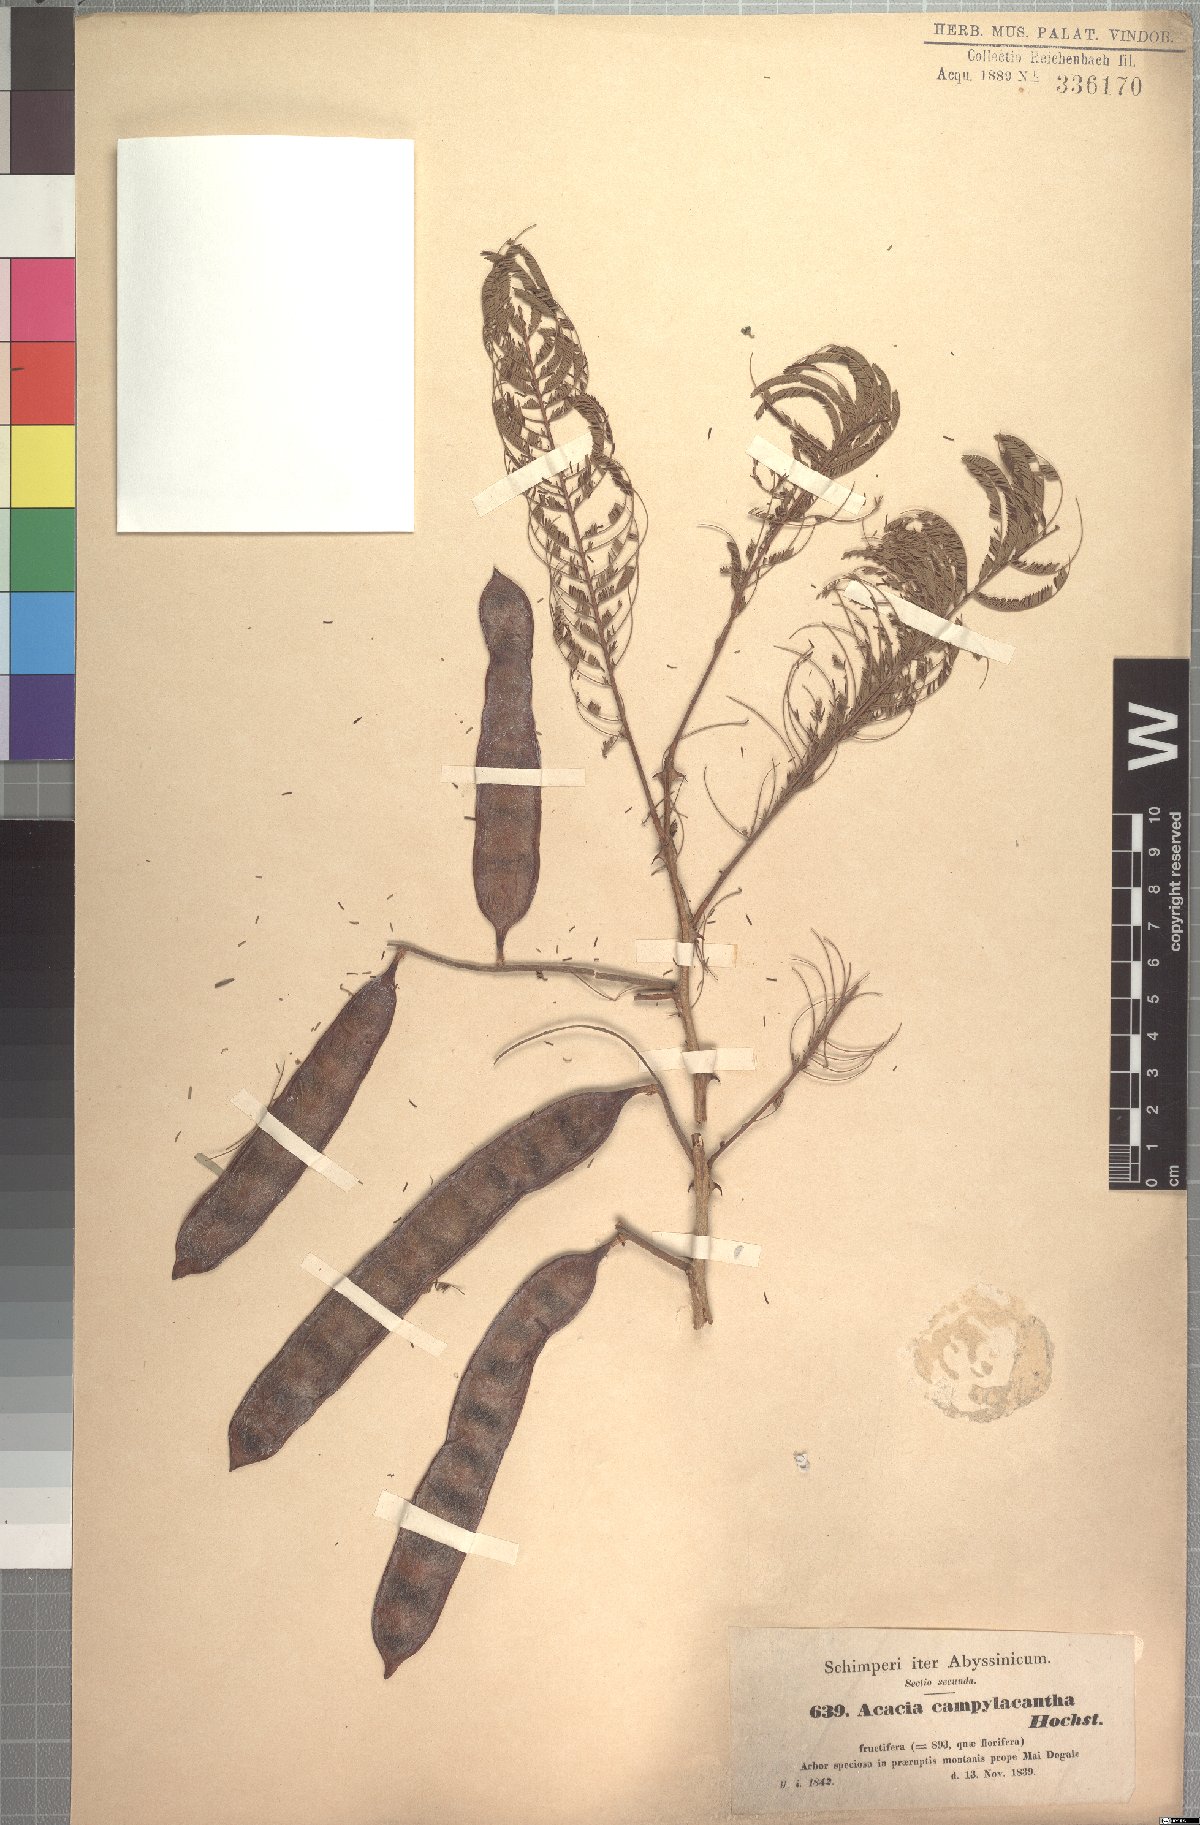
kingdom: Plantae
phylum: Tracheophyta
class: Magnoliopsida
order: Fabales
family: Fabaceae
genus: Senegalia
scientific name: Senegalia polyacantha
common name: Whitethorn
